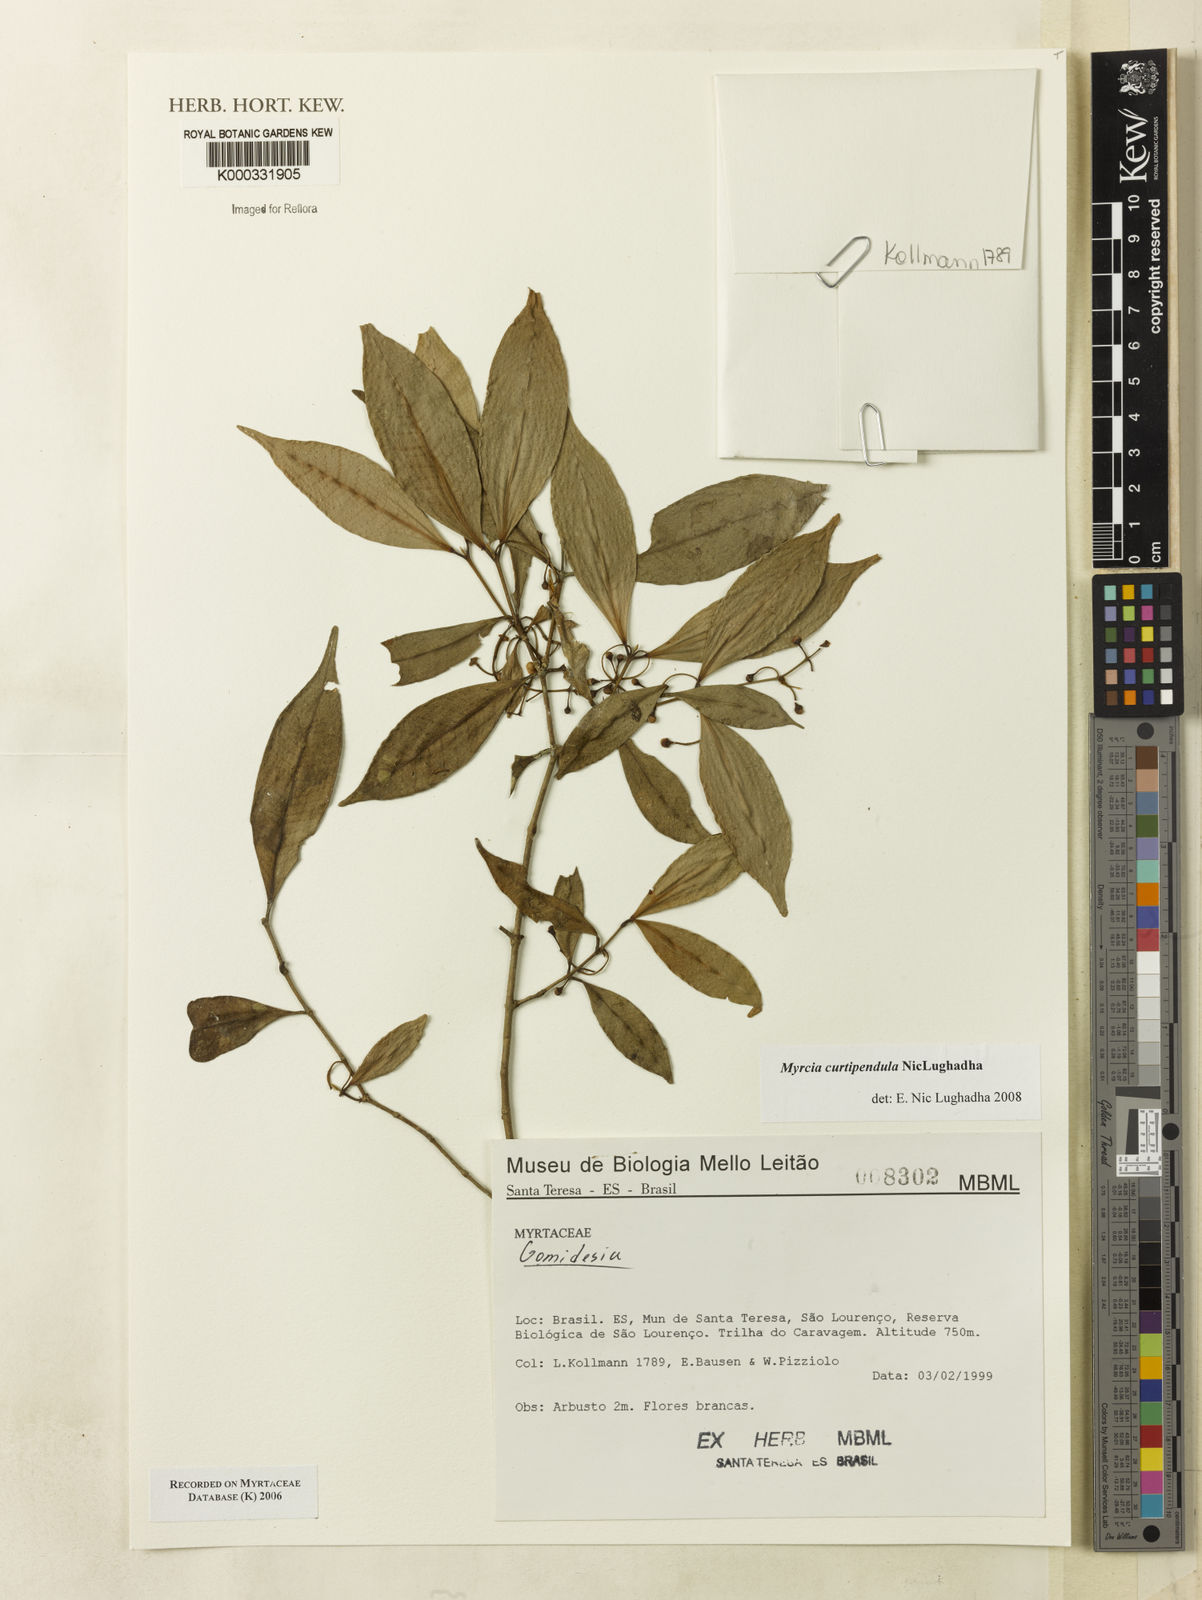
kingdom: Plantae
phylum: Tracheophyta
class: Magnoliopsida
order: Myrtales
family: Myrtaceae
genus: Myrcia
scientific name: Myrcia tijucensis
